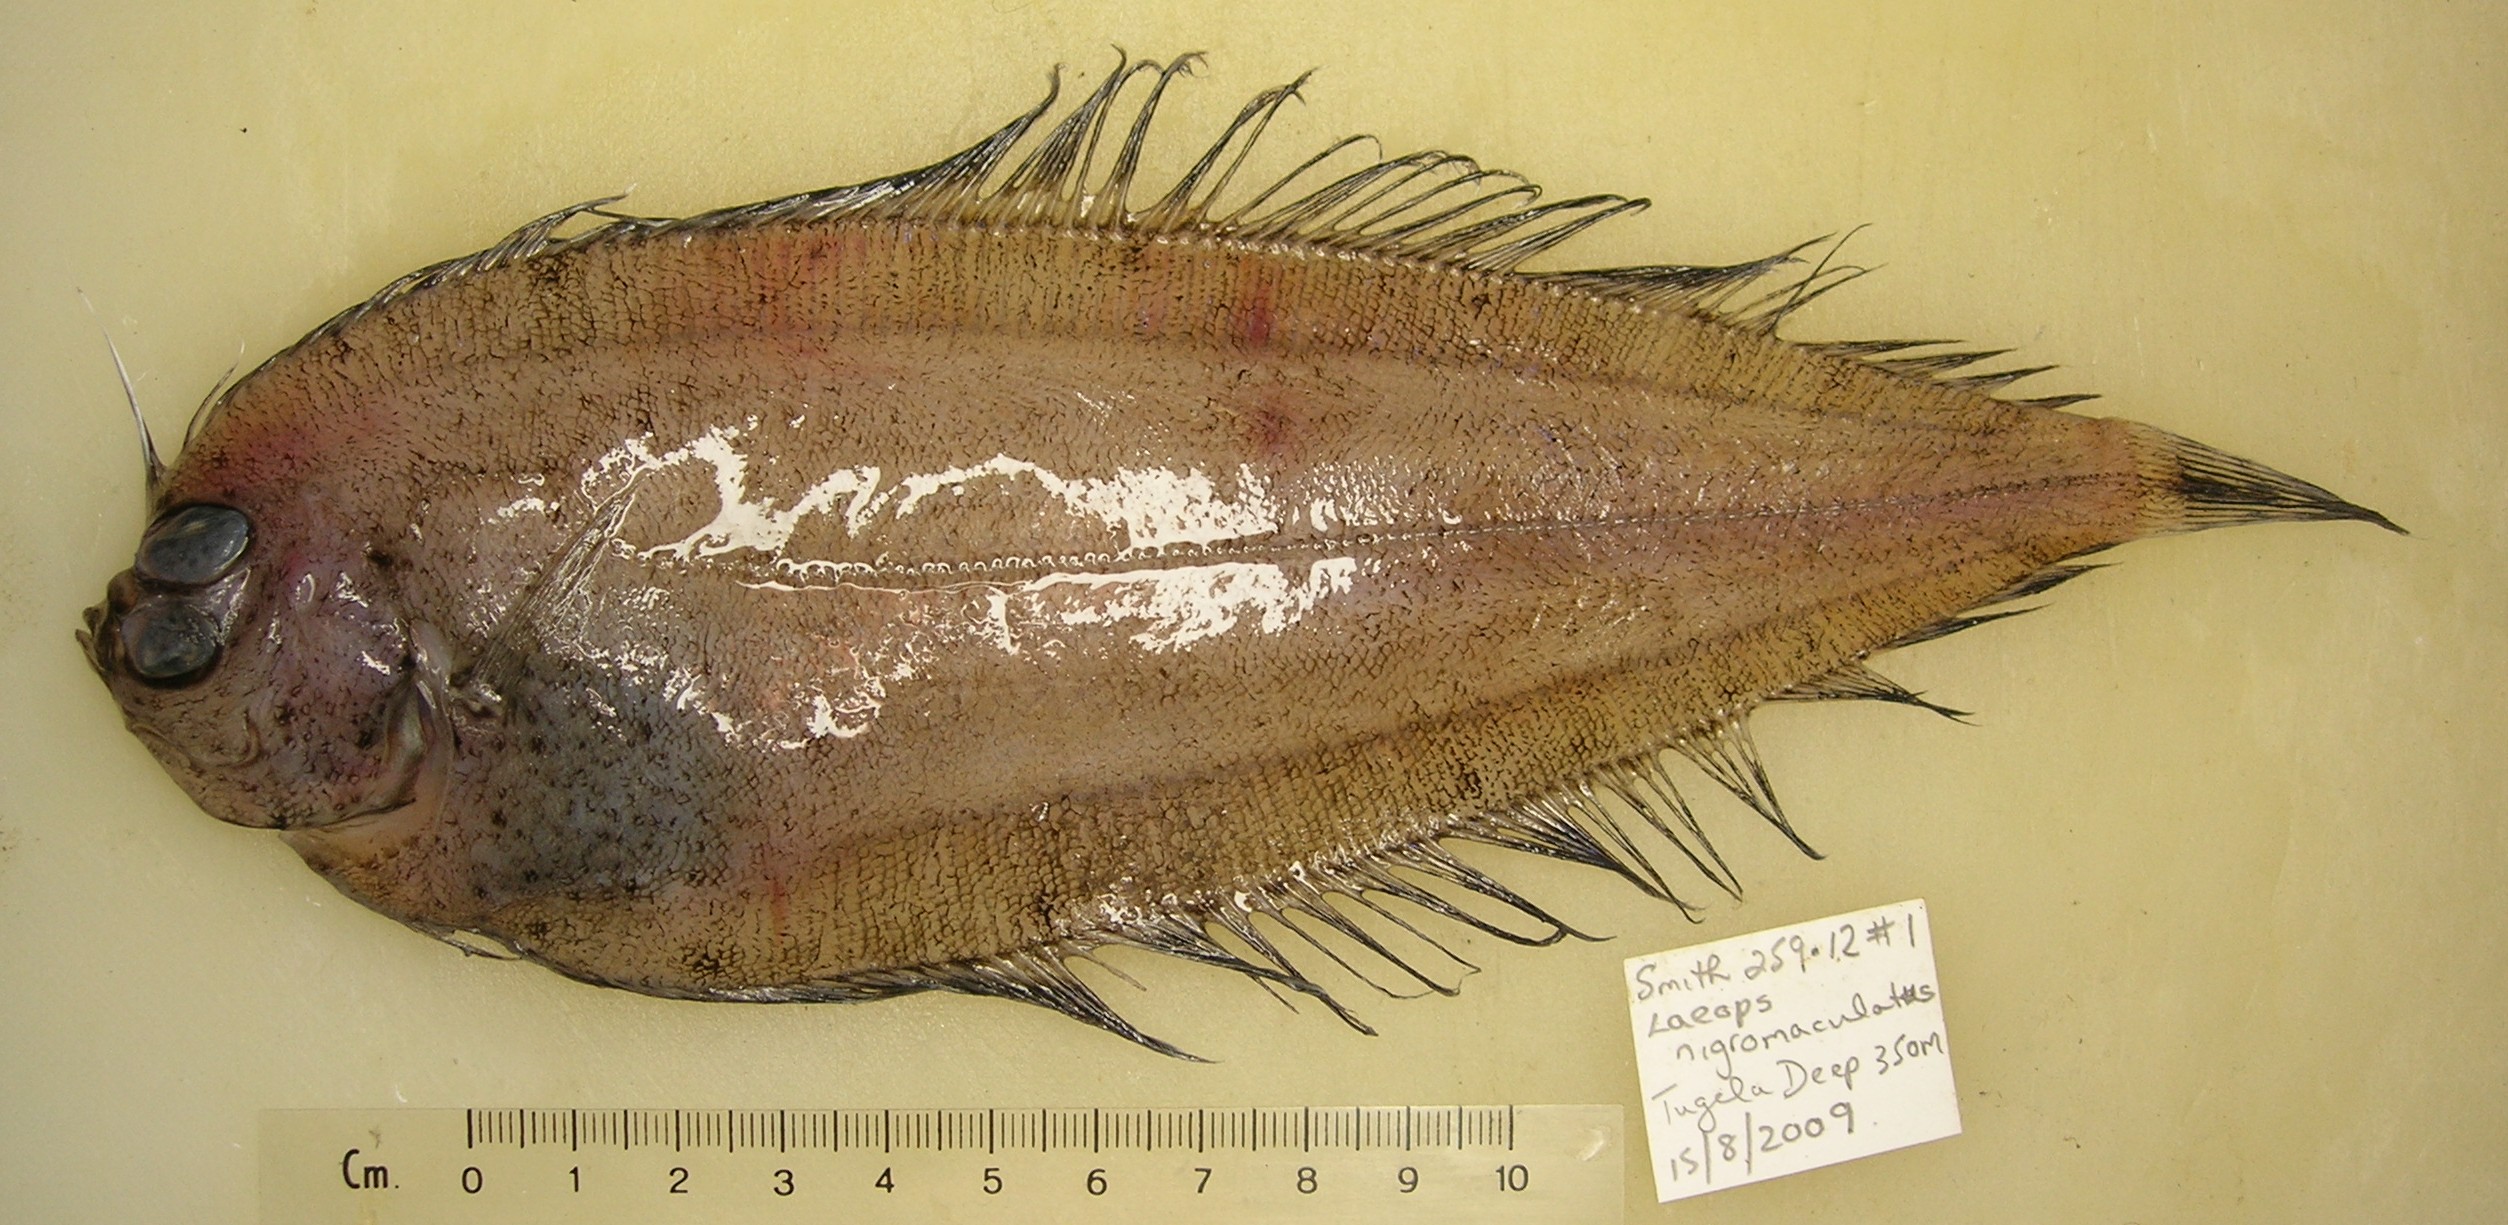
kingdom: Animalia
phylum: Chordata
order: Pleuronectiformes
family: Bothidae
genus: Laeops
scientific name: Laeops nigromaculatus
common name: Blackspotted flounder
